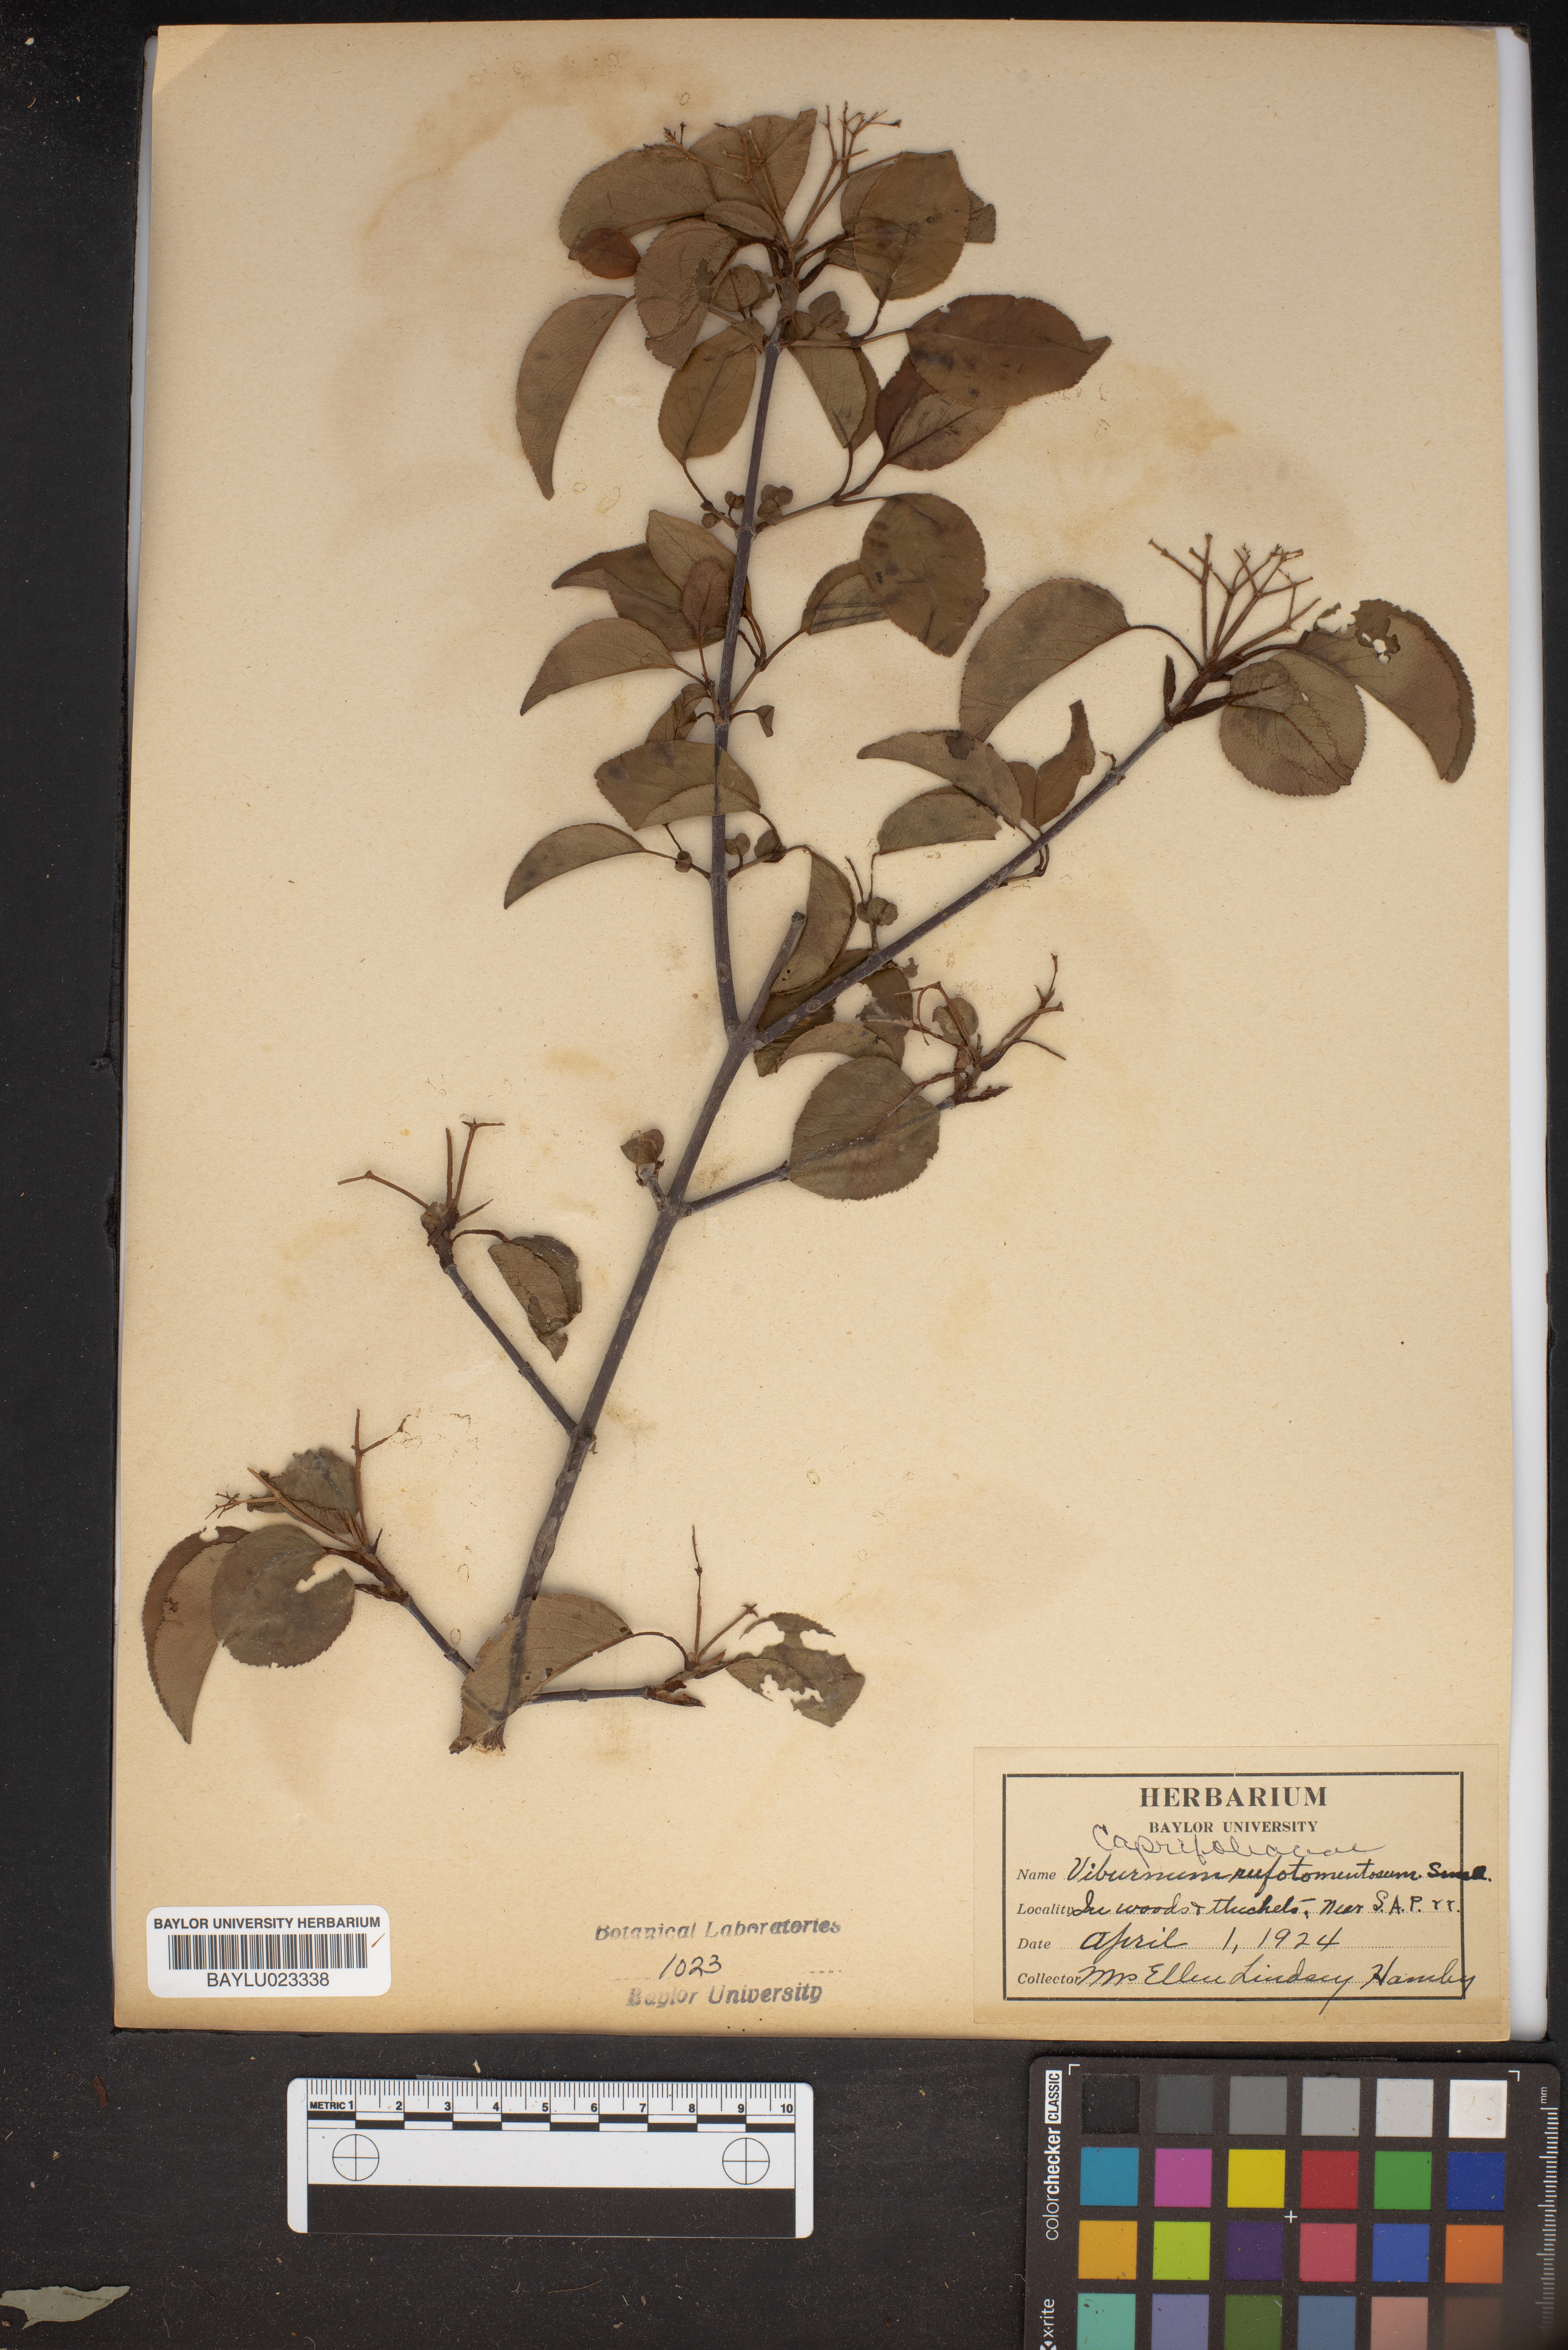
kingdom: Plantae
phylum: Tracheophyta
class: Magnoliopsida
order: Dipsacales
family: Viburnaceae
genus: Viburnum
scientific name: Viburnum rufidulum
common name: Blue haw
